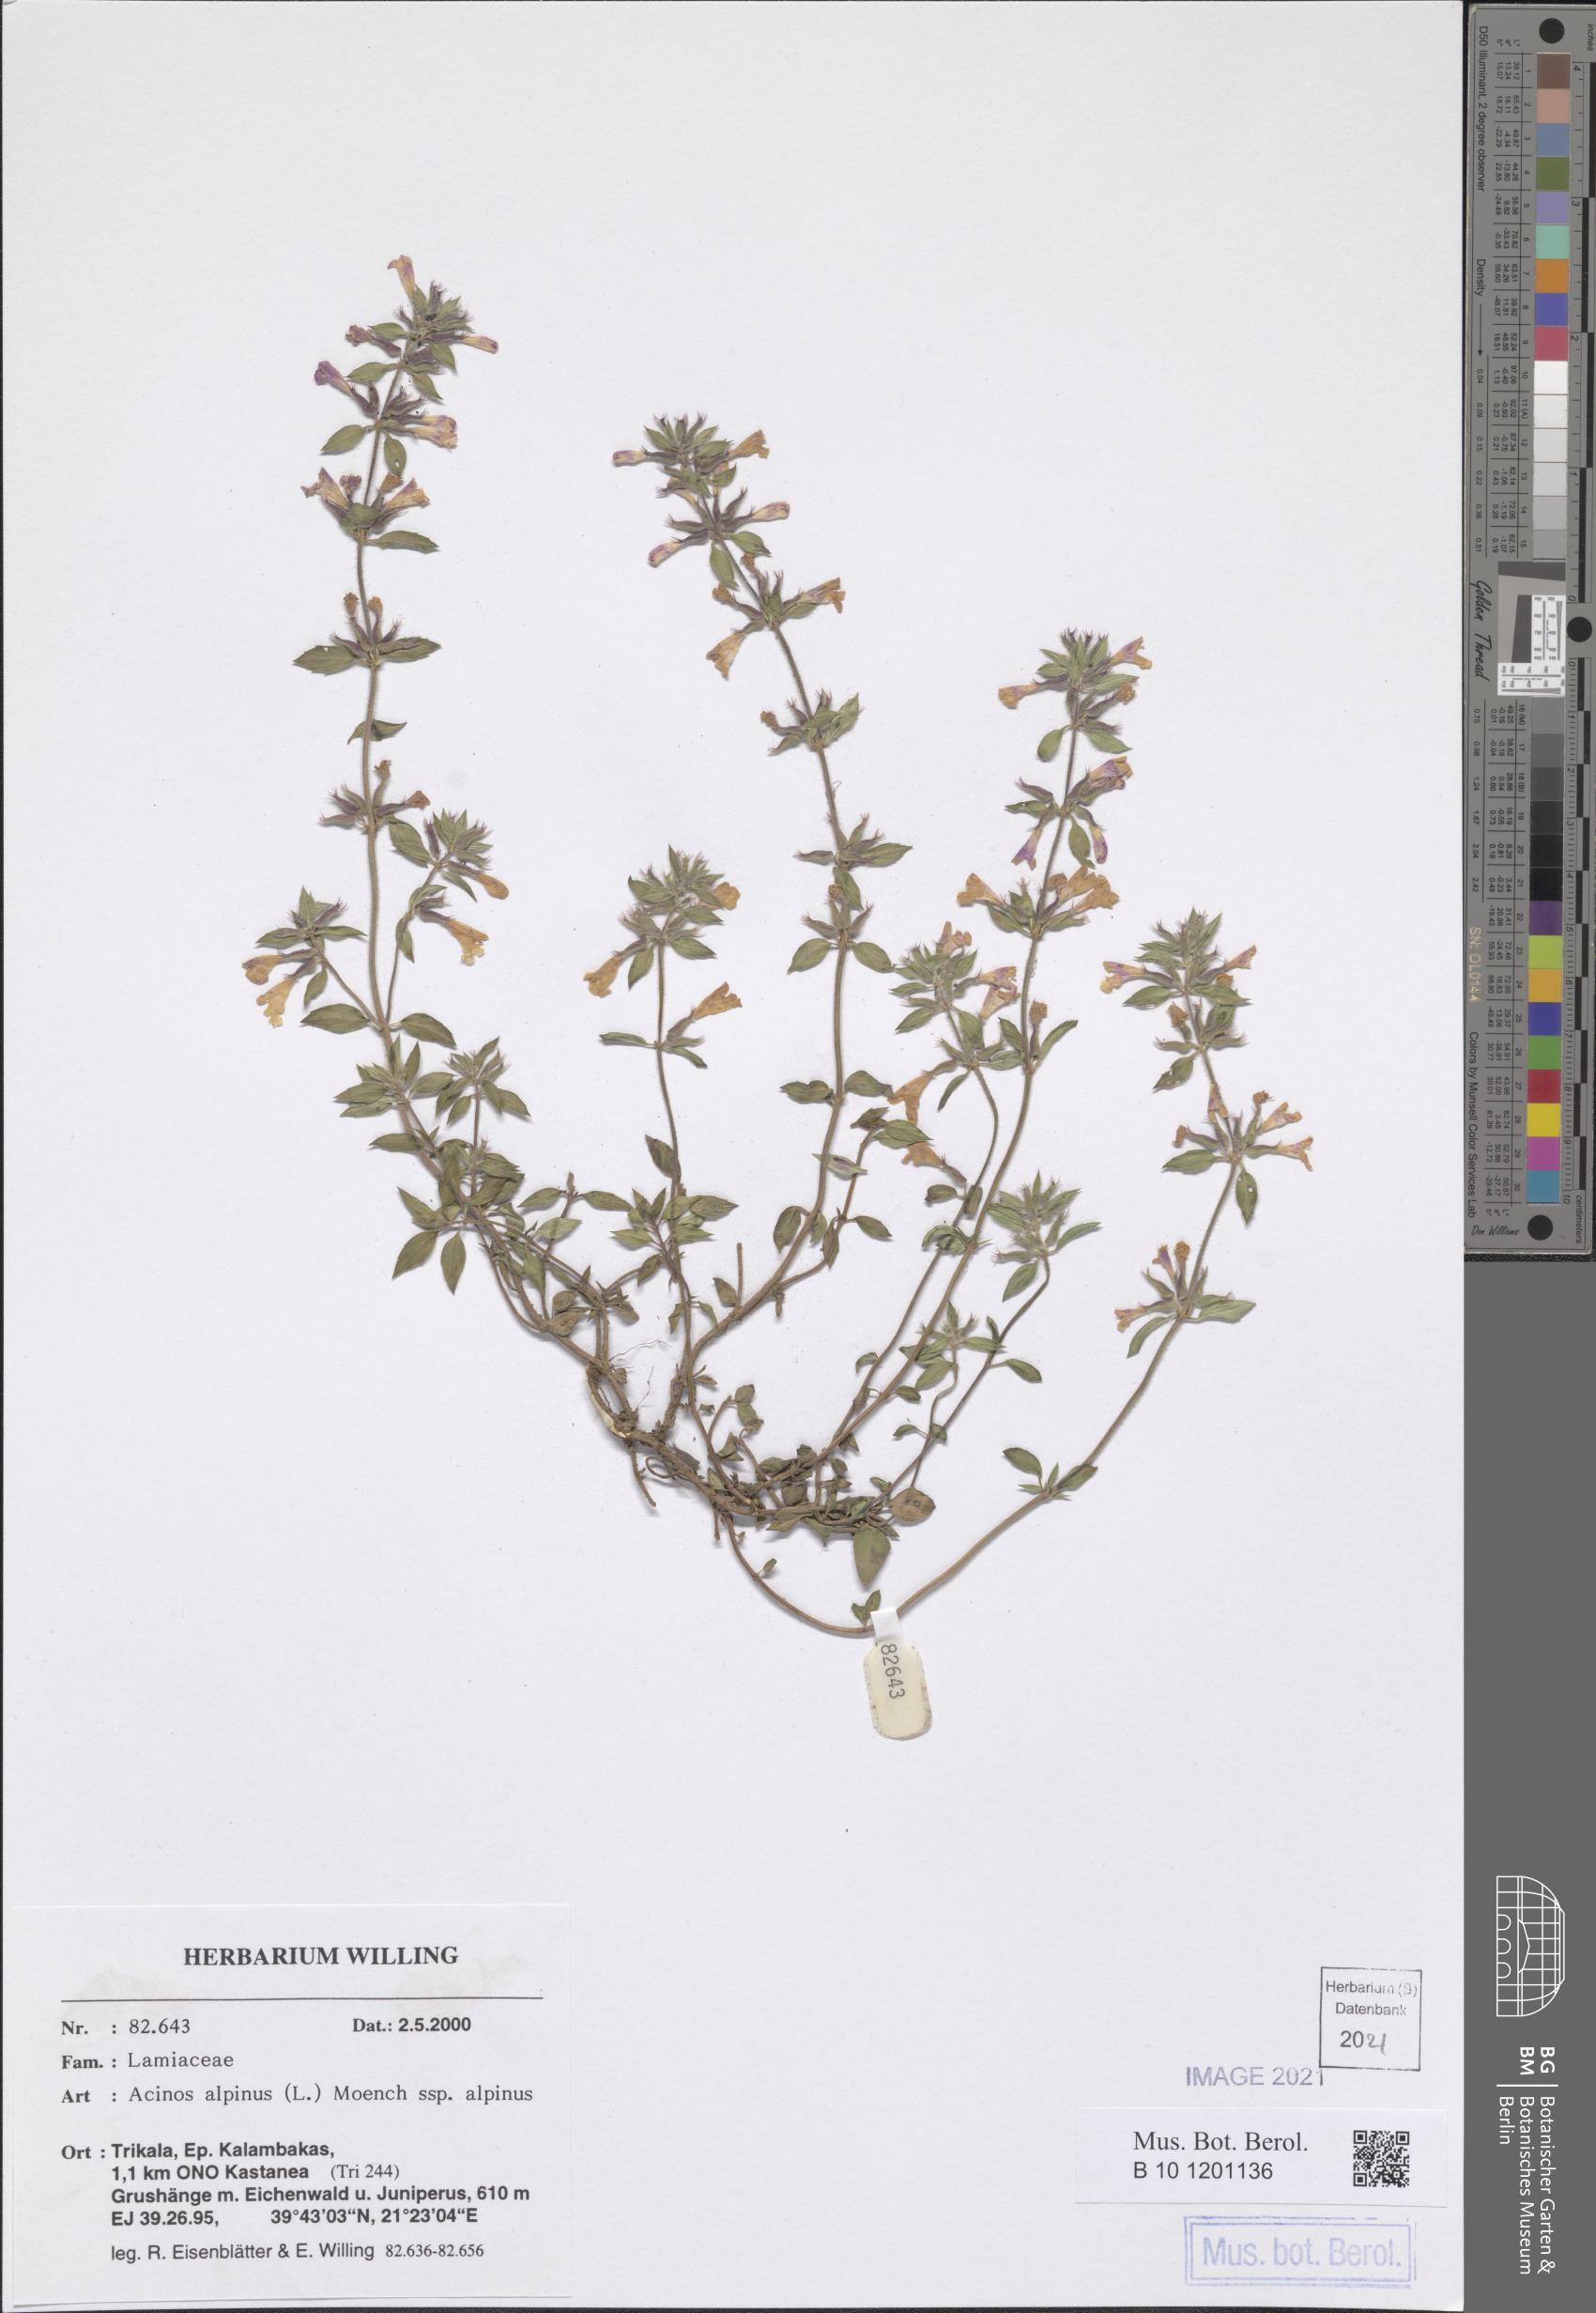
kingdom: Plantae
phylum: Tracheophyta
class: Magnoliopsida
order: Lamiales
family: Lamiaceae
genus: Clinopodium
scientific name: Clinopodium alpinum
